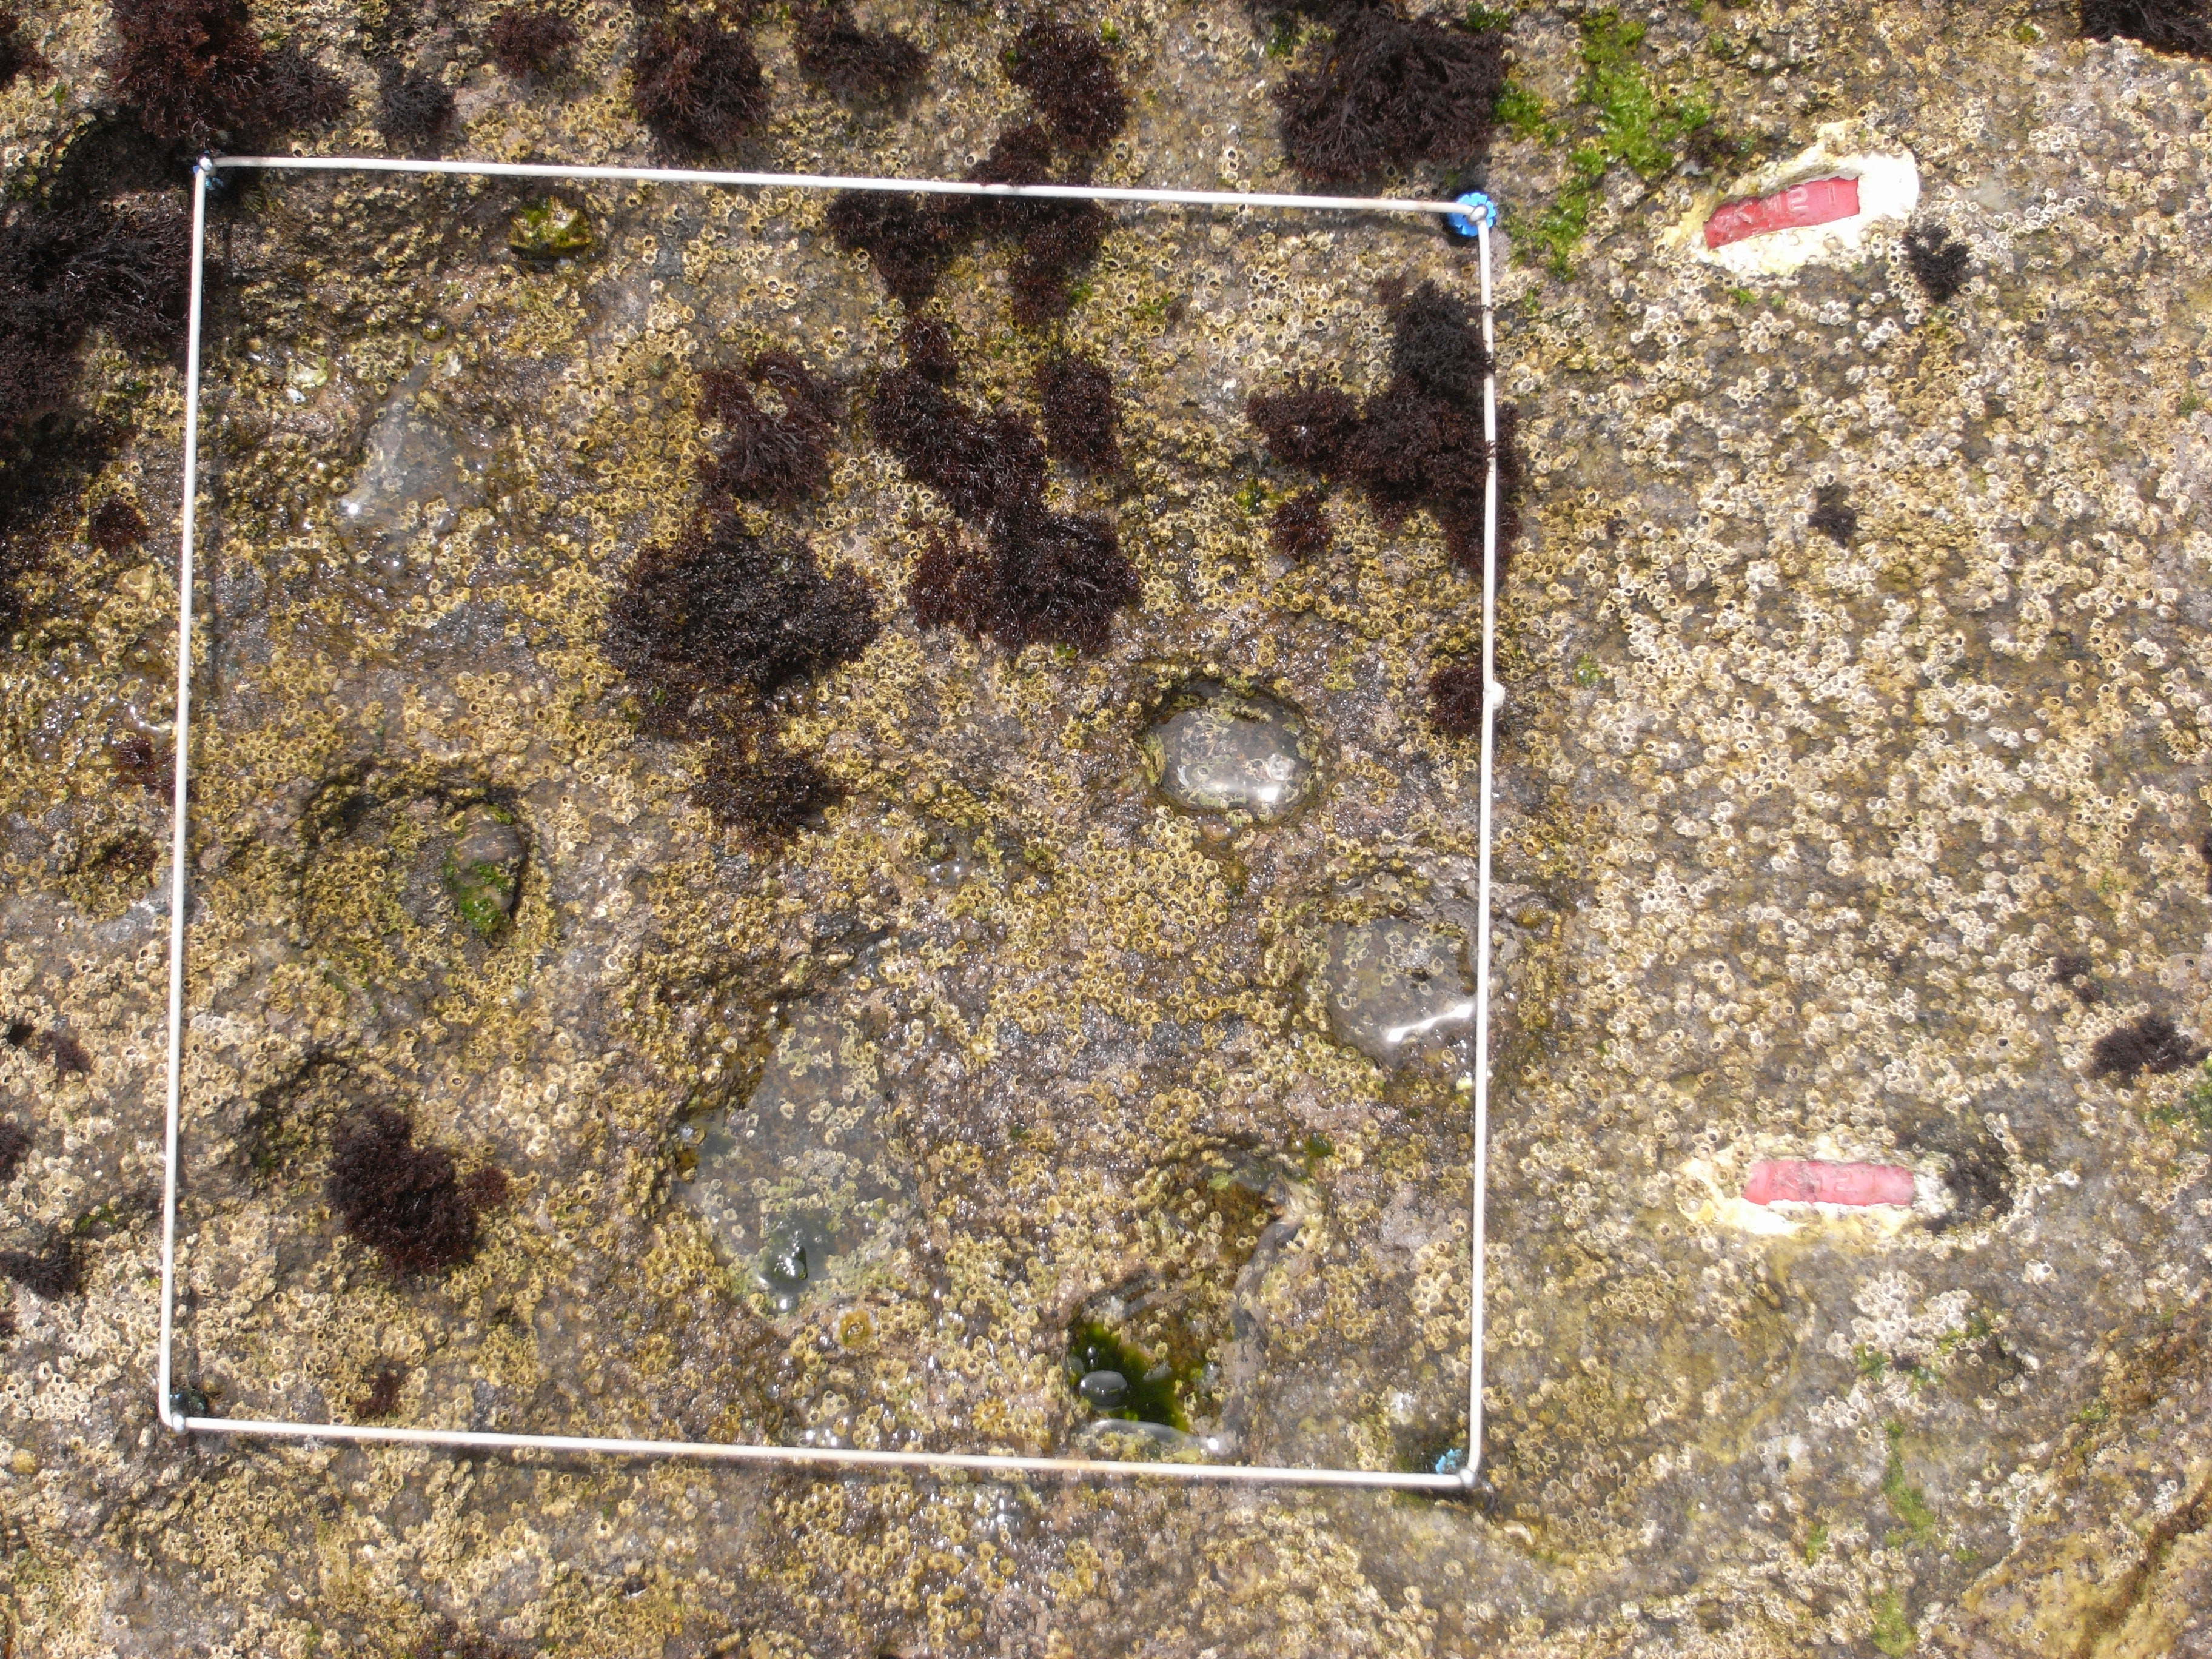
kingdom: Animalia
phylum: Arthropoda
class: Maxillopoda
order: Sessilia
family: Chthamalidae
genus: Chthamalus
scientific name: Chthamalus challengeri
